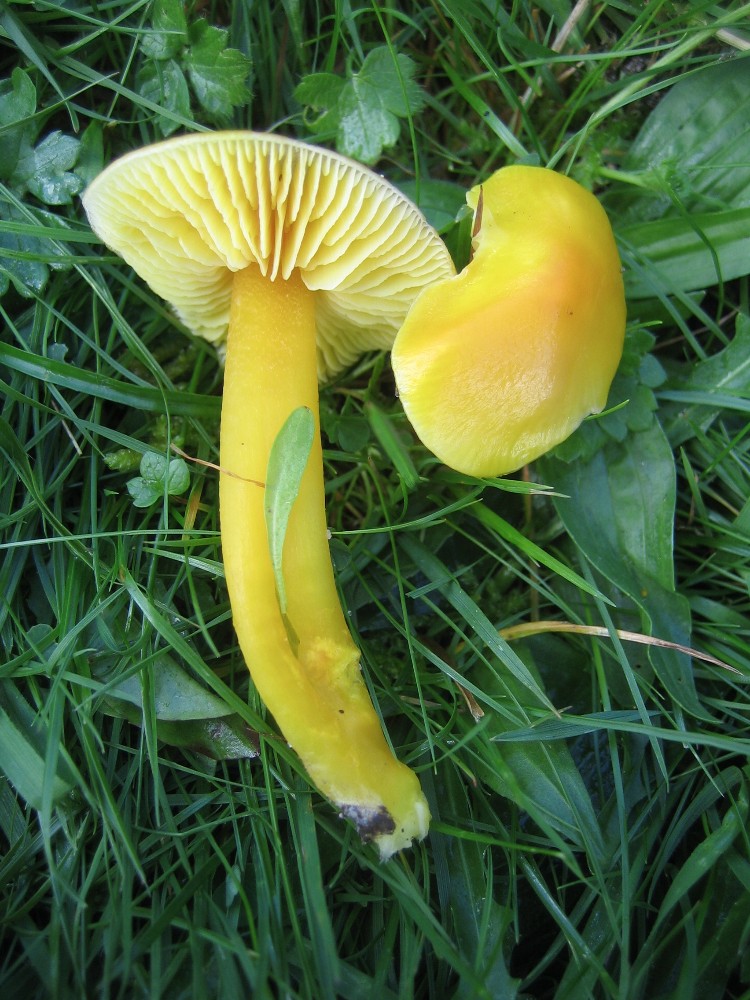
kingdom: Fungi
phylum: Basidiomycota
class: Agaricomycetes
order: Agaricales
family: Hygrophoraceae
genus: Hygrocybe
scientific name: Hygrocybe chlorophana
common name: gul vokshat
